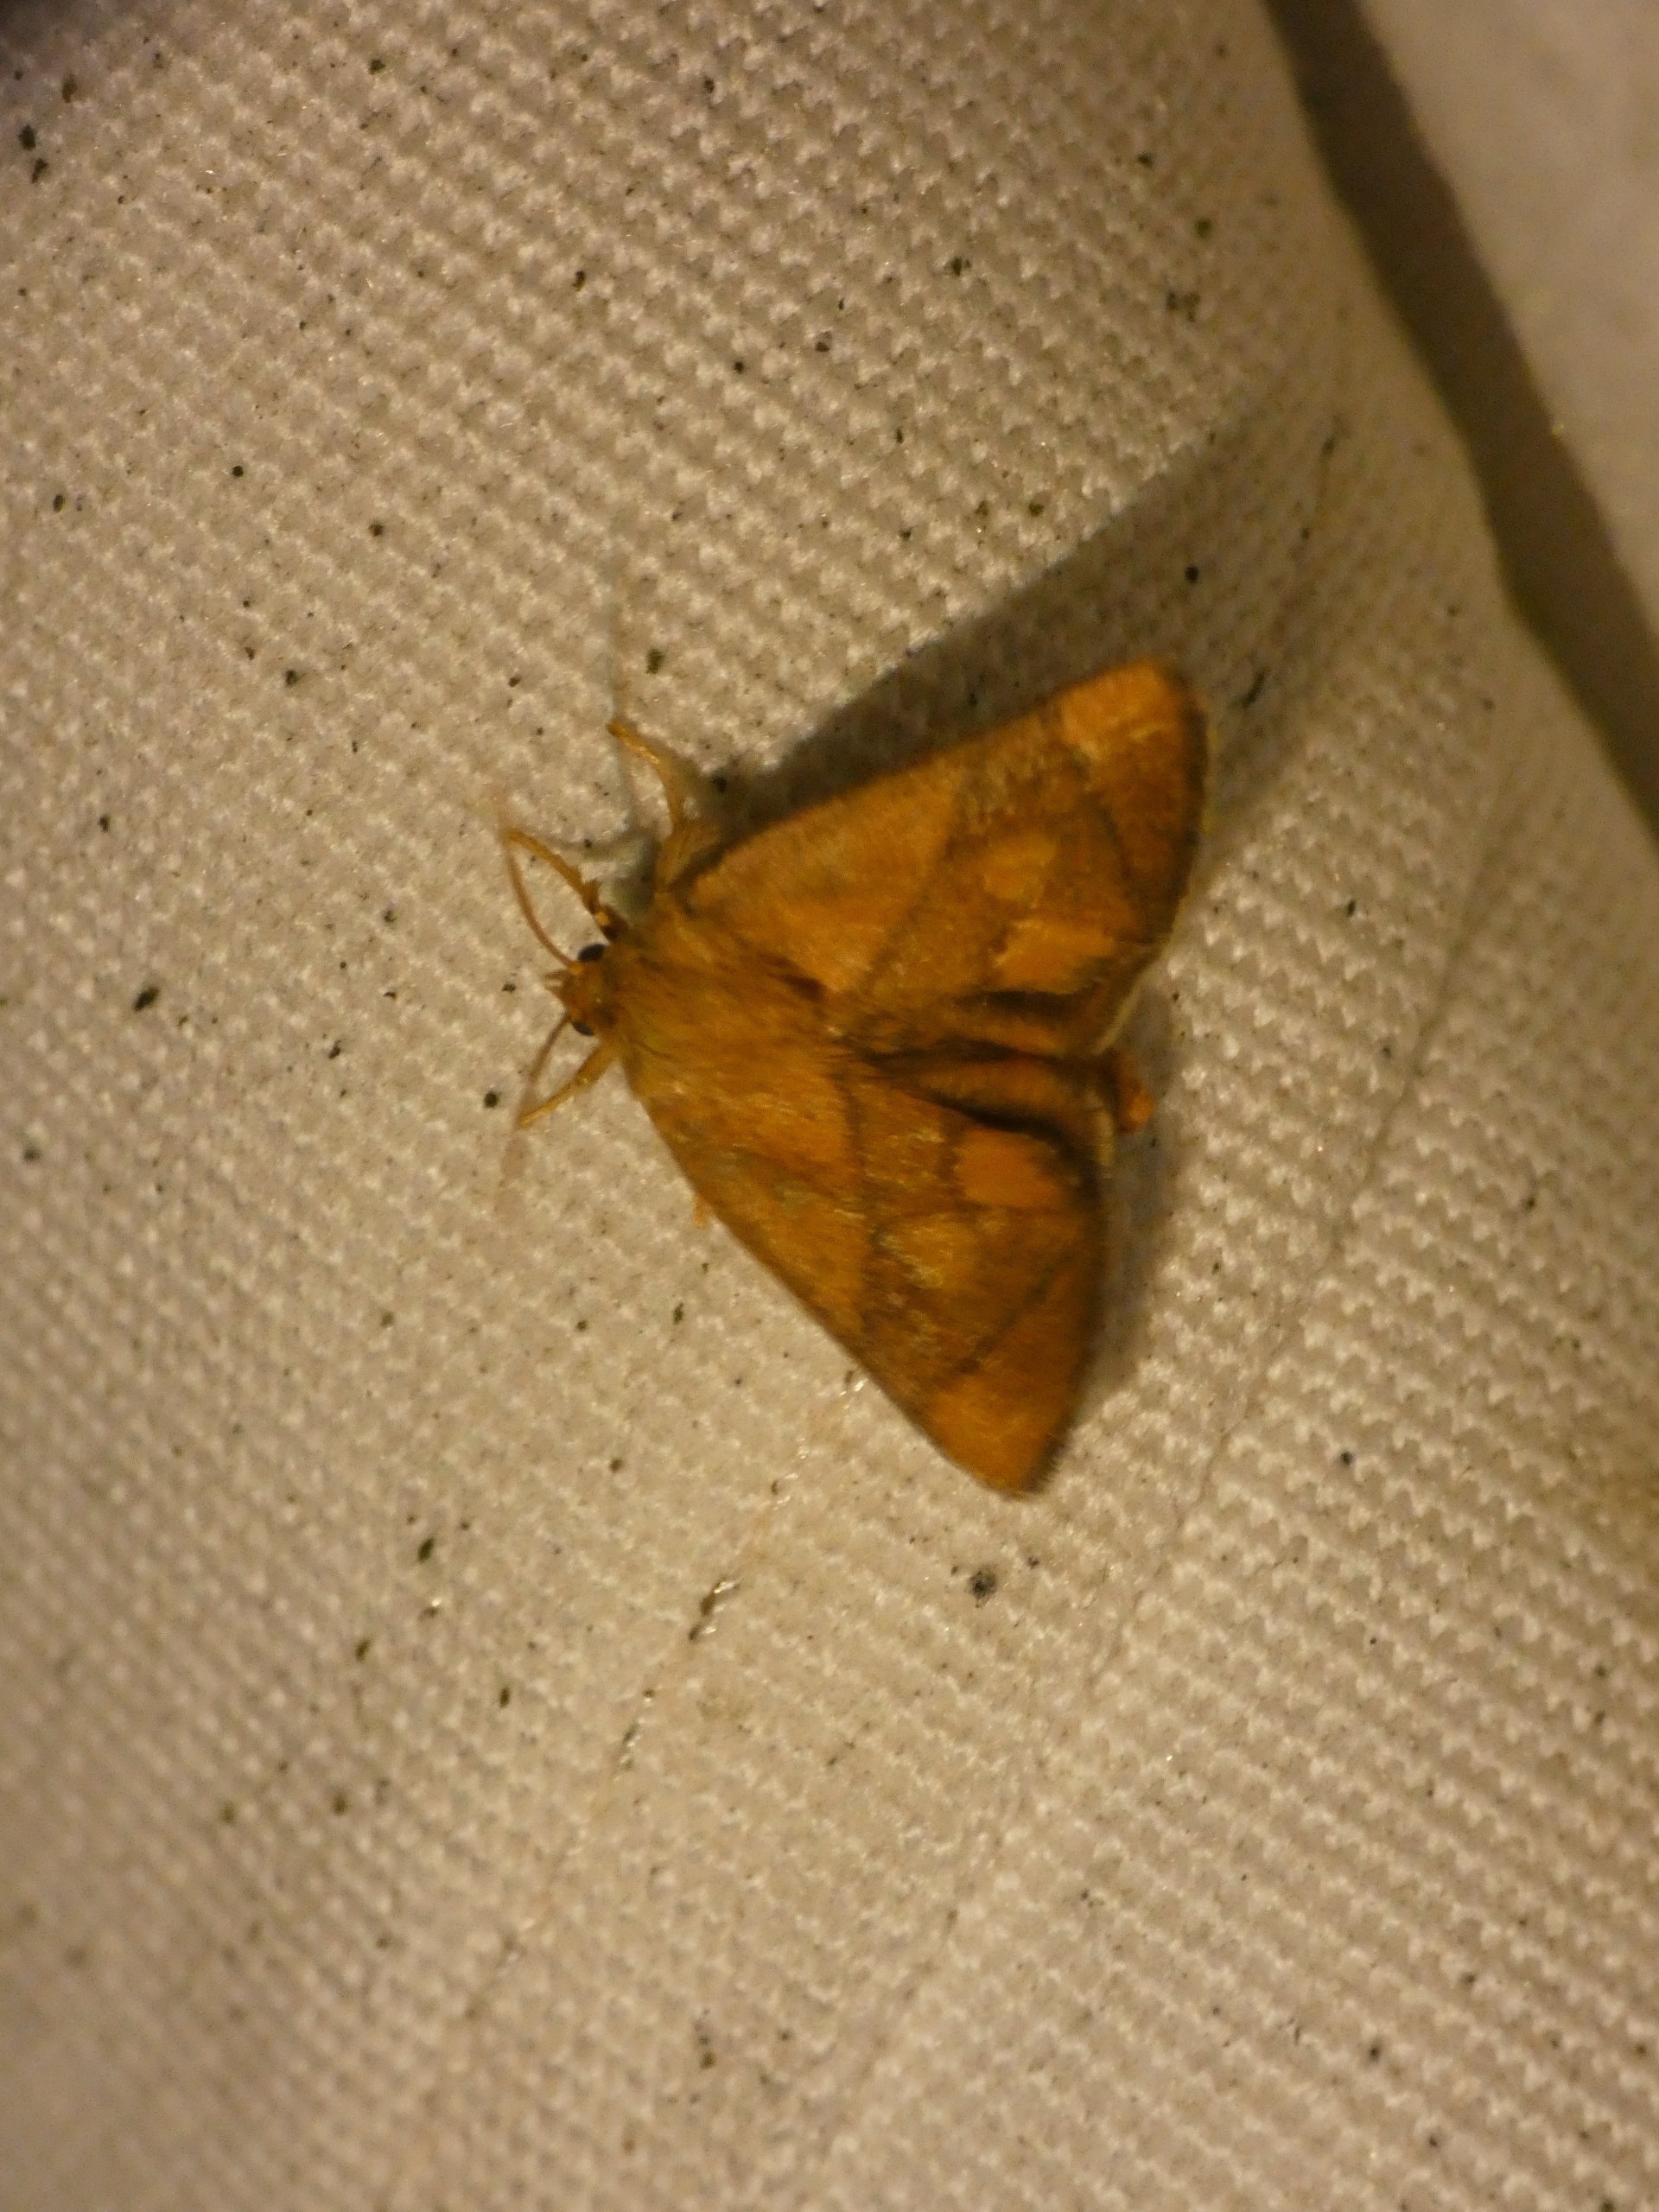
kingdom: Animalia
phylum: Arthropoda
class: Insecta
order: Lepidoptera
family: Limacodidae
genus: Apoda
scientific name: Apoda limacodes
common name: Stor sneglespinder
